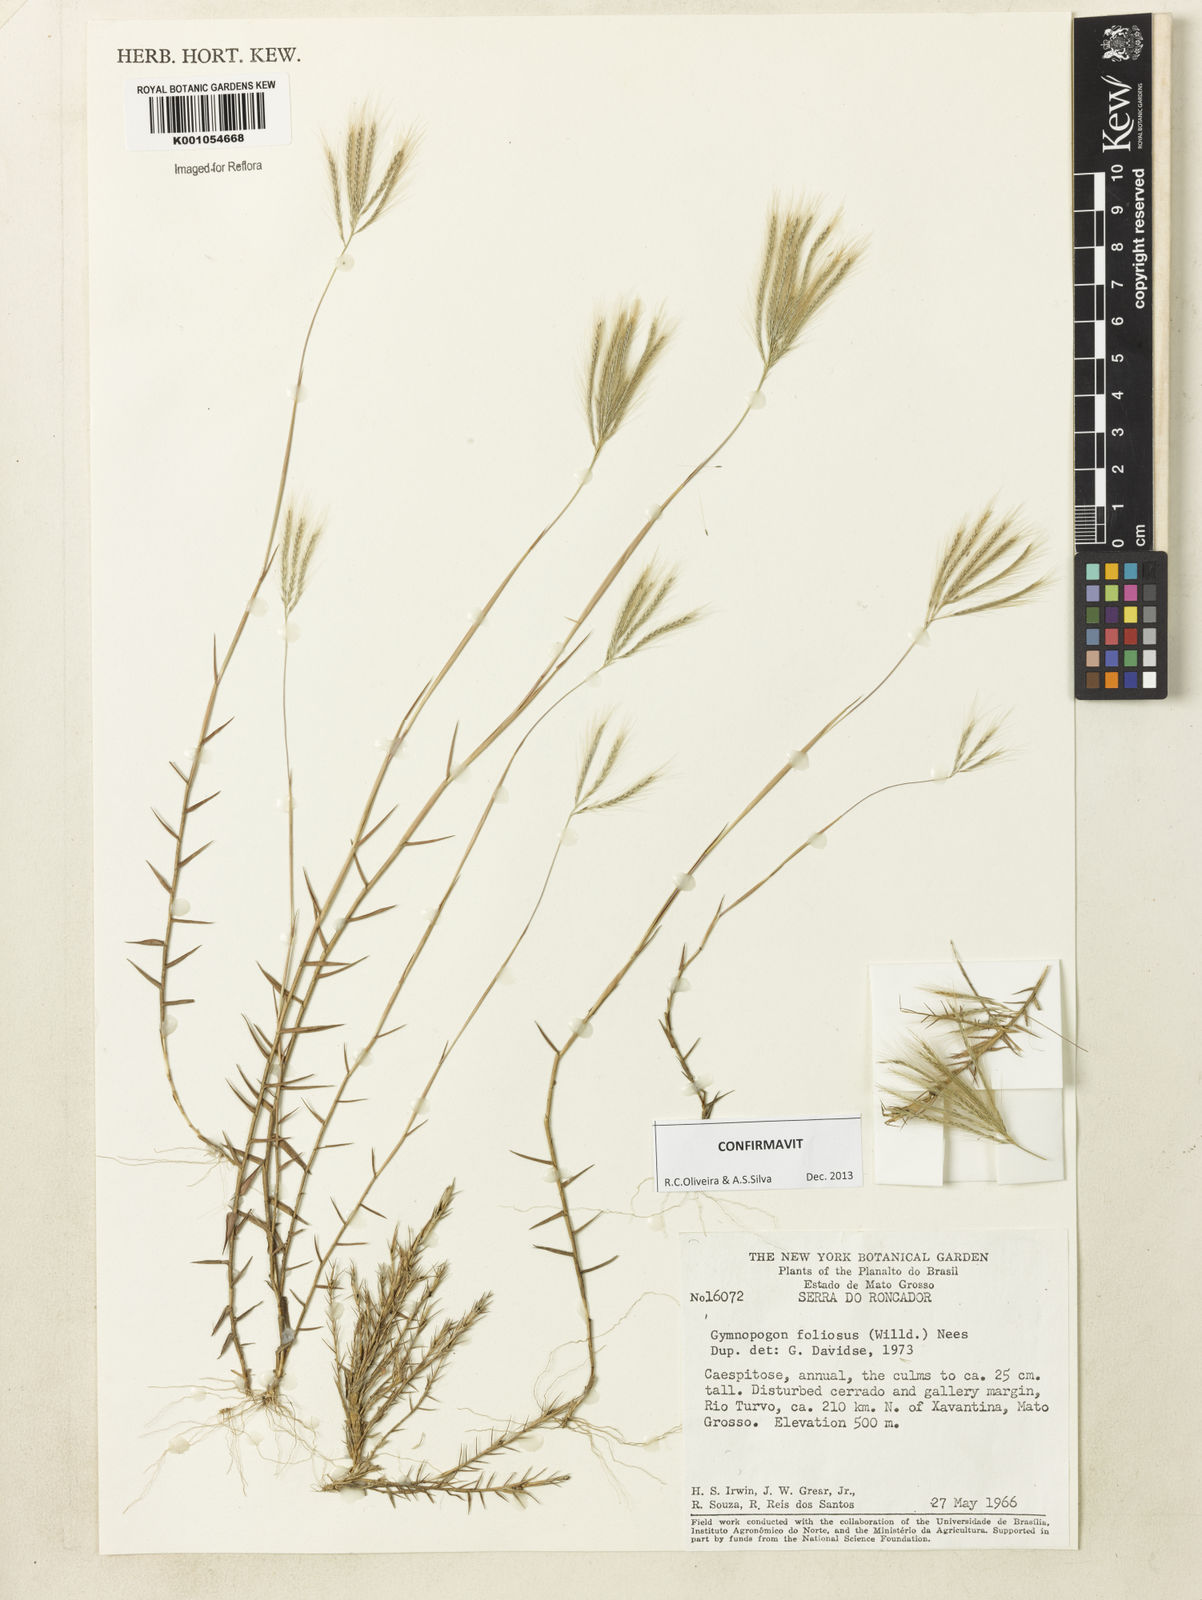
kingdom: Plantae
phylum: Tracheophyta
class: Liliopsida
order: Poales
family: Poaceae
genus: Gymnopogon
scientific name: Gymnopogon foliosus
